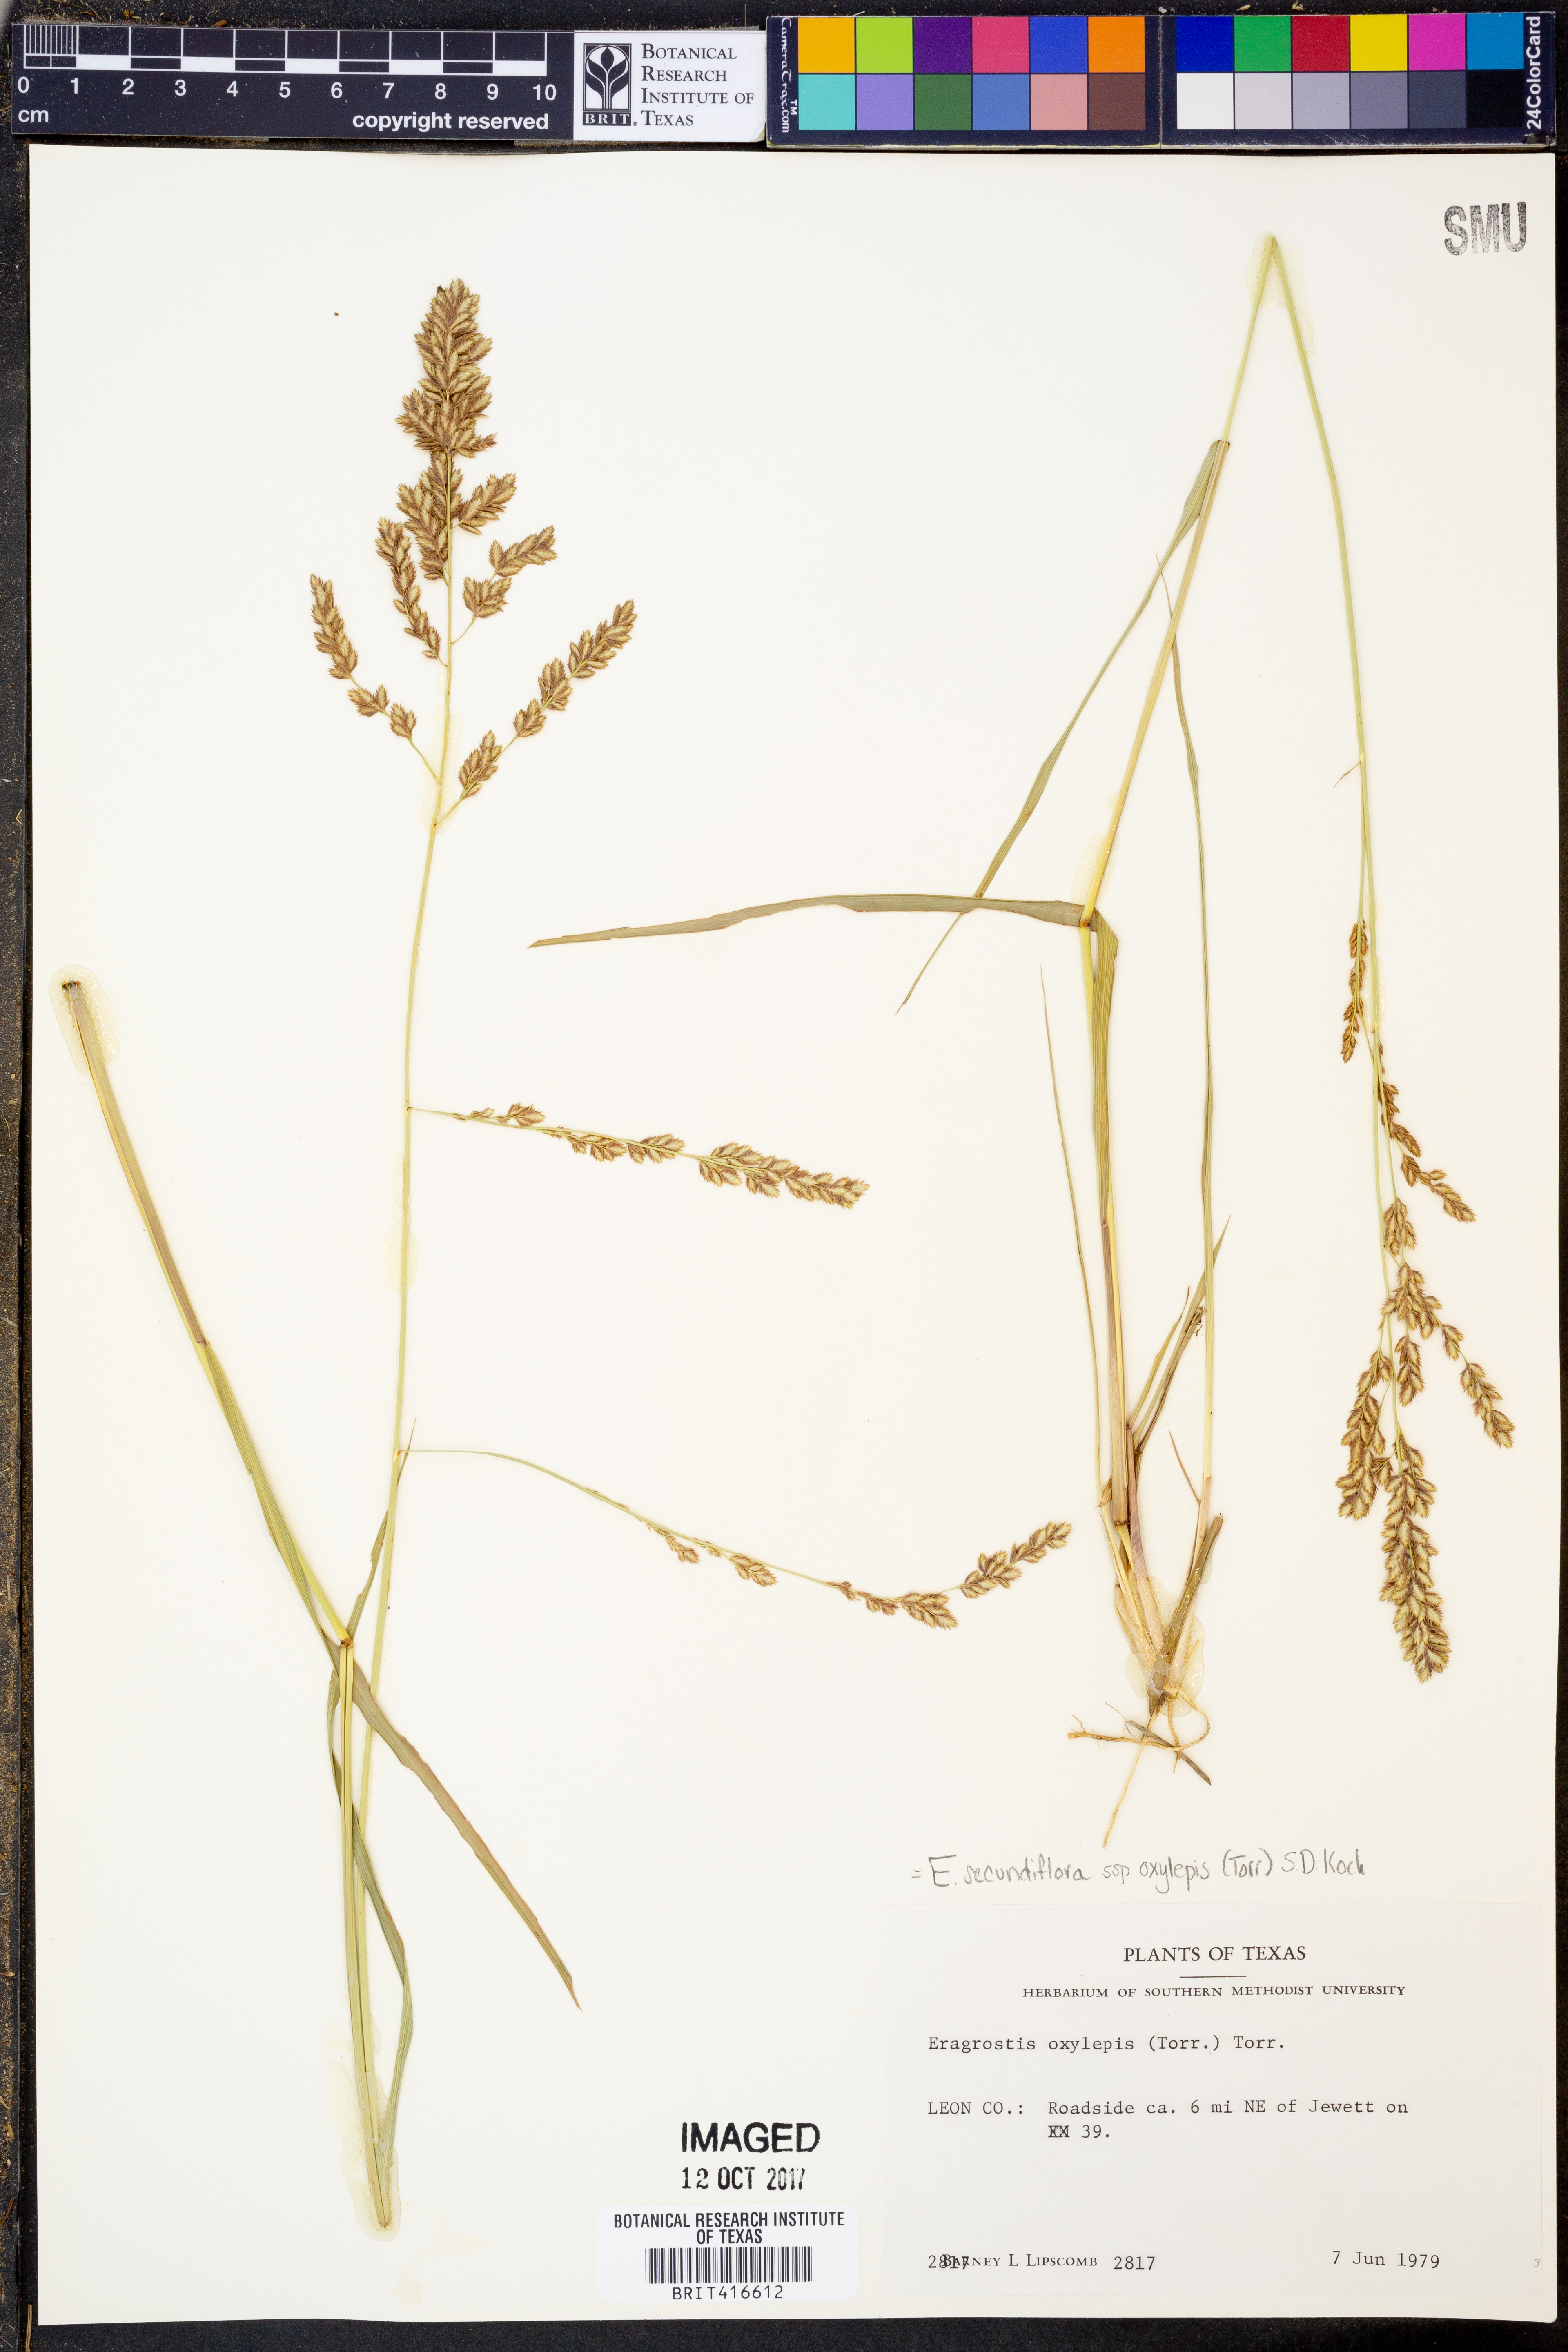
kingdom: Plantae
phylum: Tracheophyta
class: Liliopsida
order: Poales
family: Poaceae
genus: Eragrostis
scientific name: Eragrostis secundiflora
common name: Red love grass
